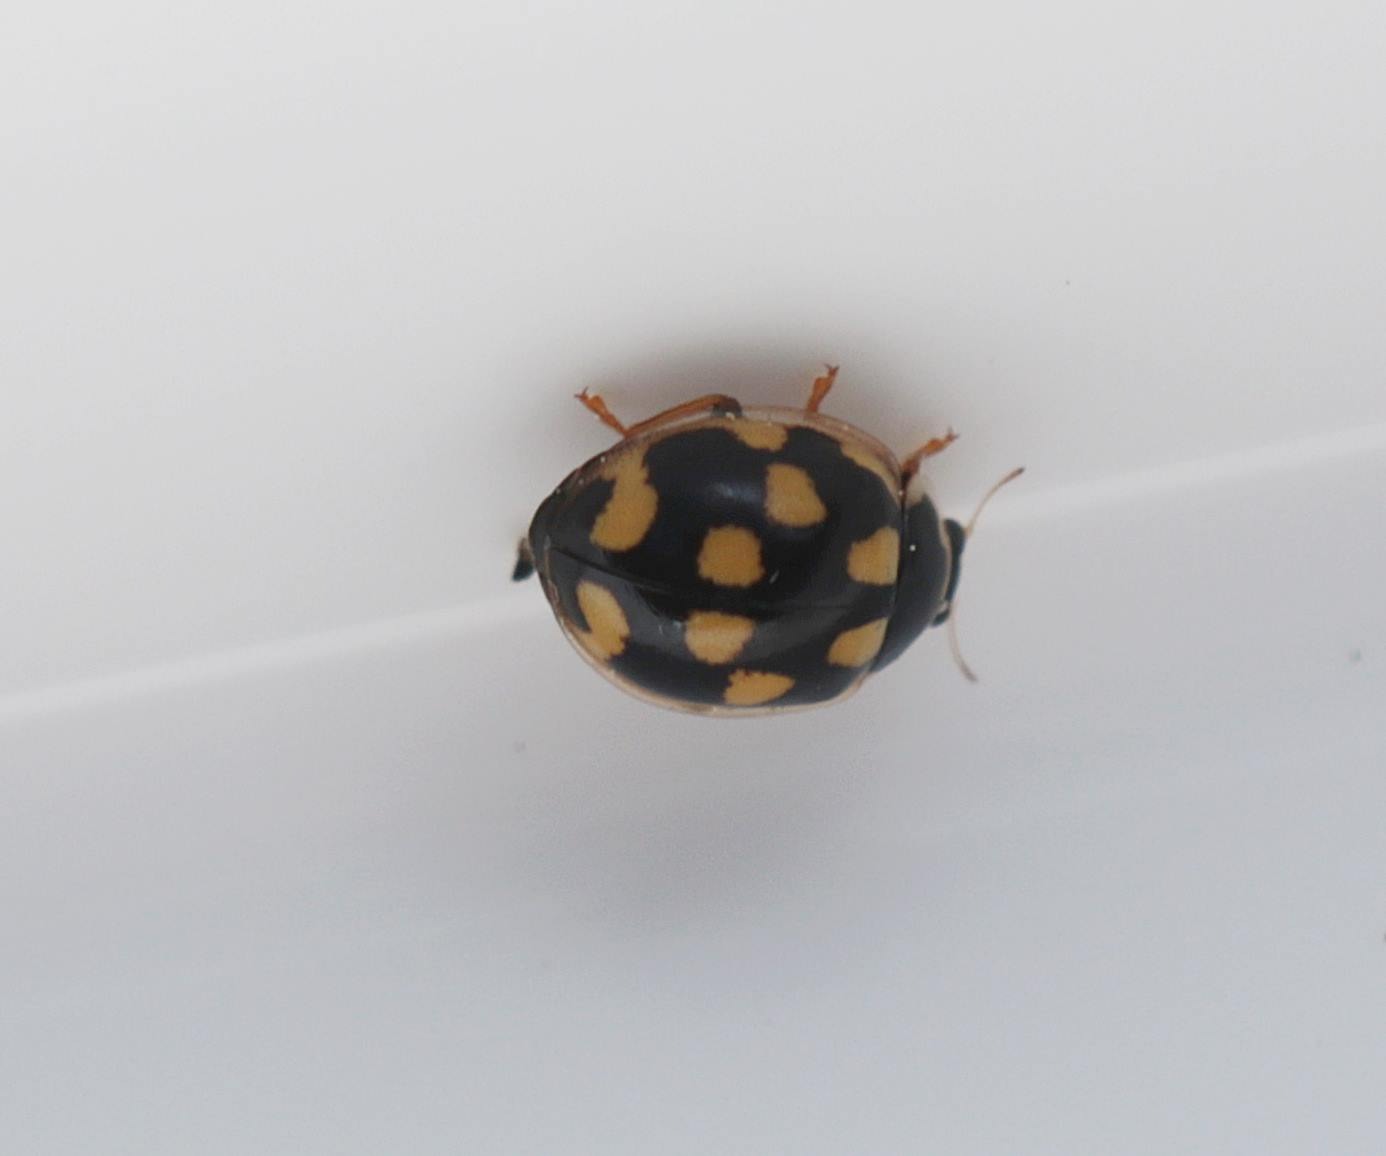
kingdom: Animalia
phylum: Arthropoda
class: Insecta
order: Coleoptera
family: Coccinellidae
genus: Propylaea
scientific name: Propylaea quatuordecimpunctata
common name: Skakbræt
